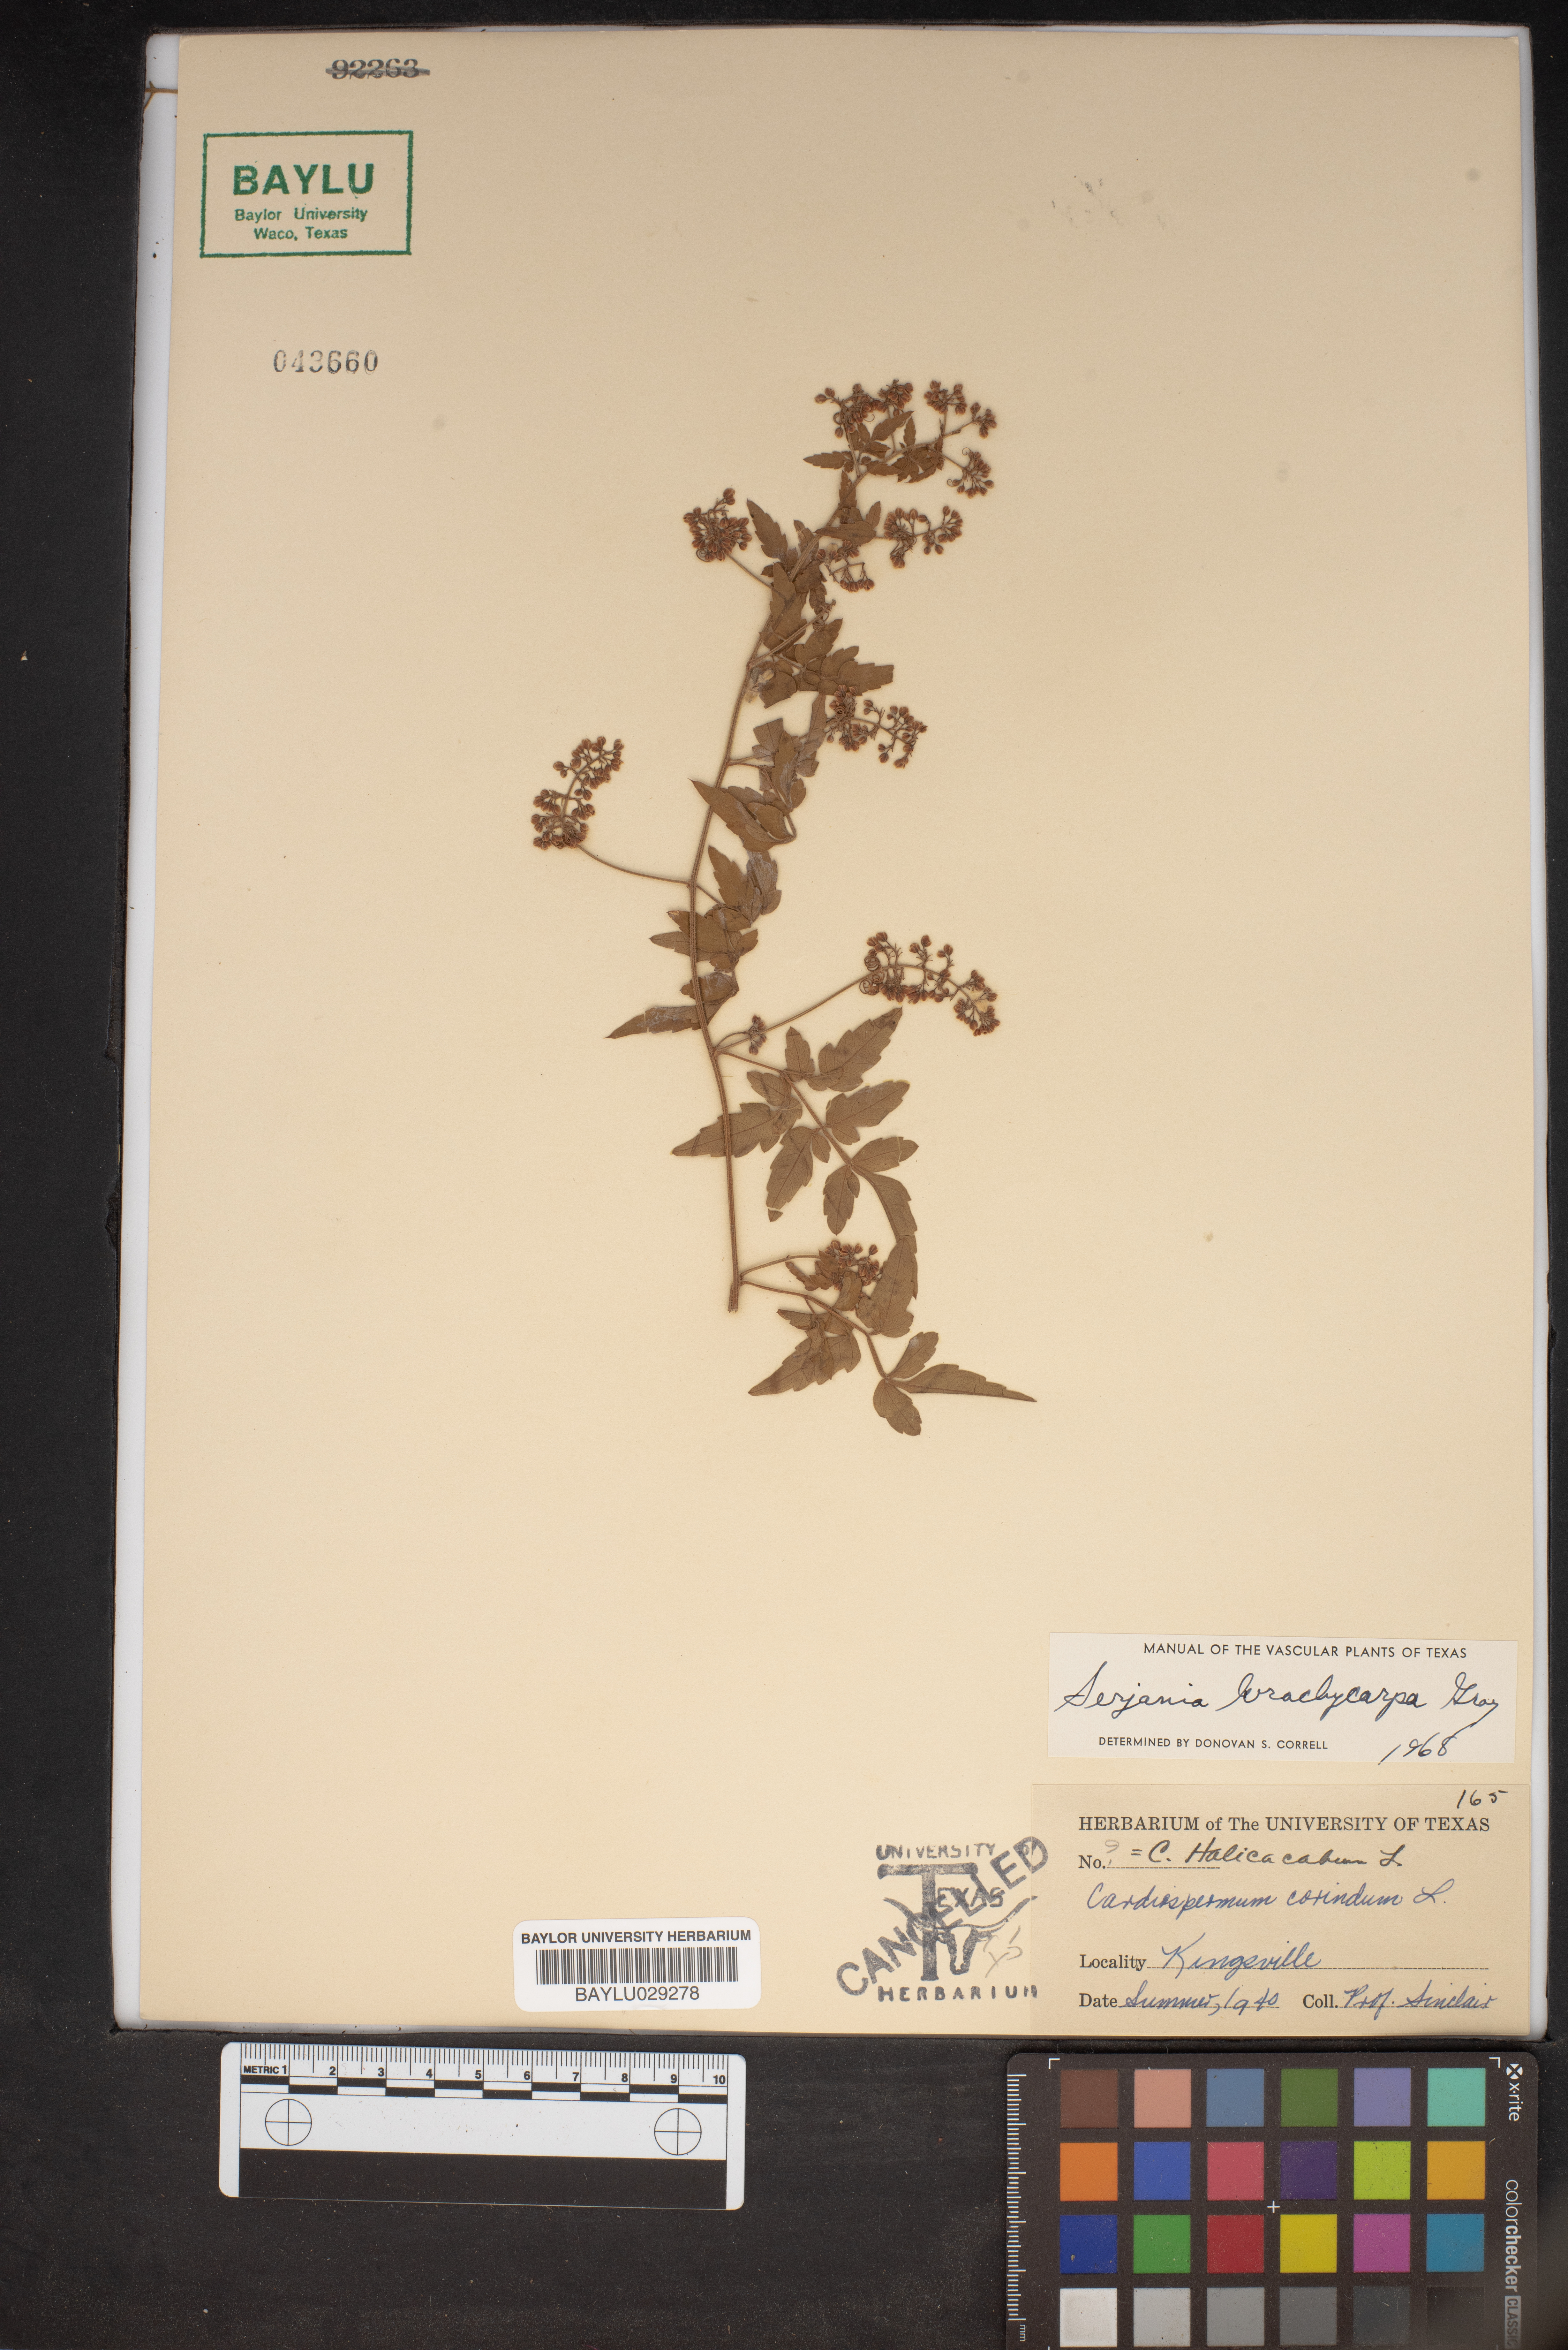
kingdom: Plantae
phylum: Tracheophyta
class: Magnoliopsida
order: Sapindales
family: Sapindaceae
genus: Cardiospermum
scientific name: Cardiospermum corindum
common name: Faux persil
